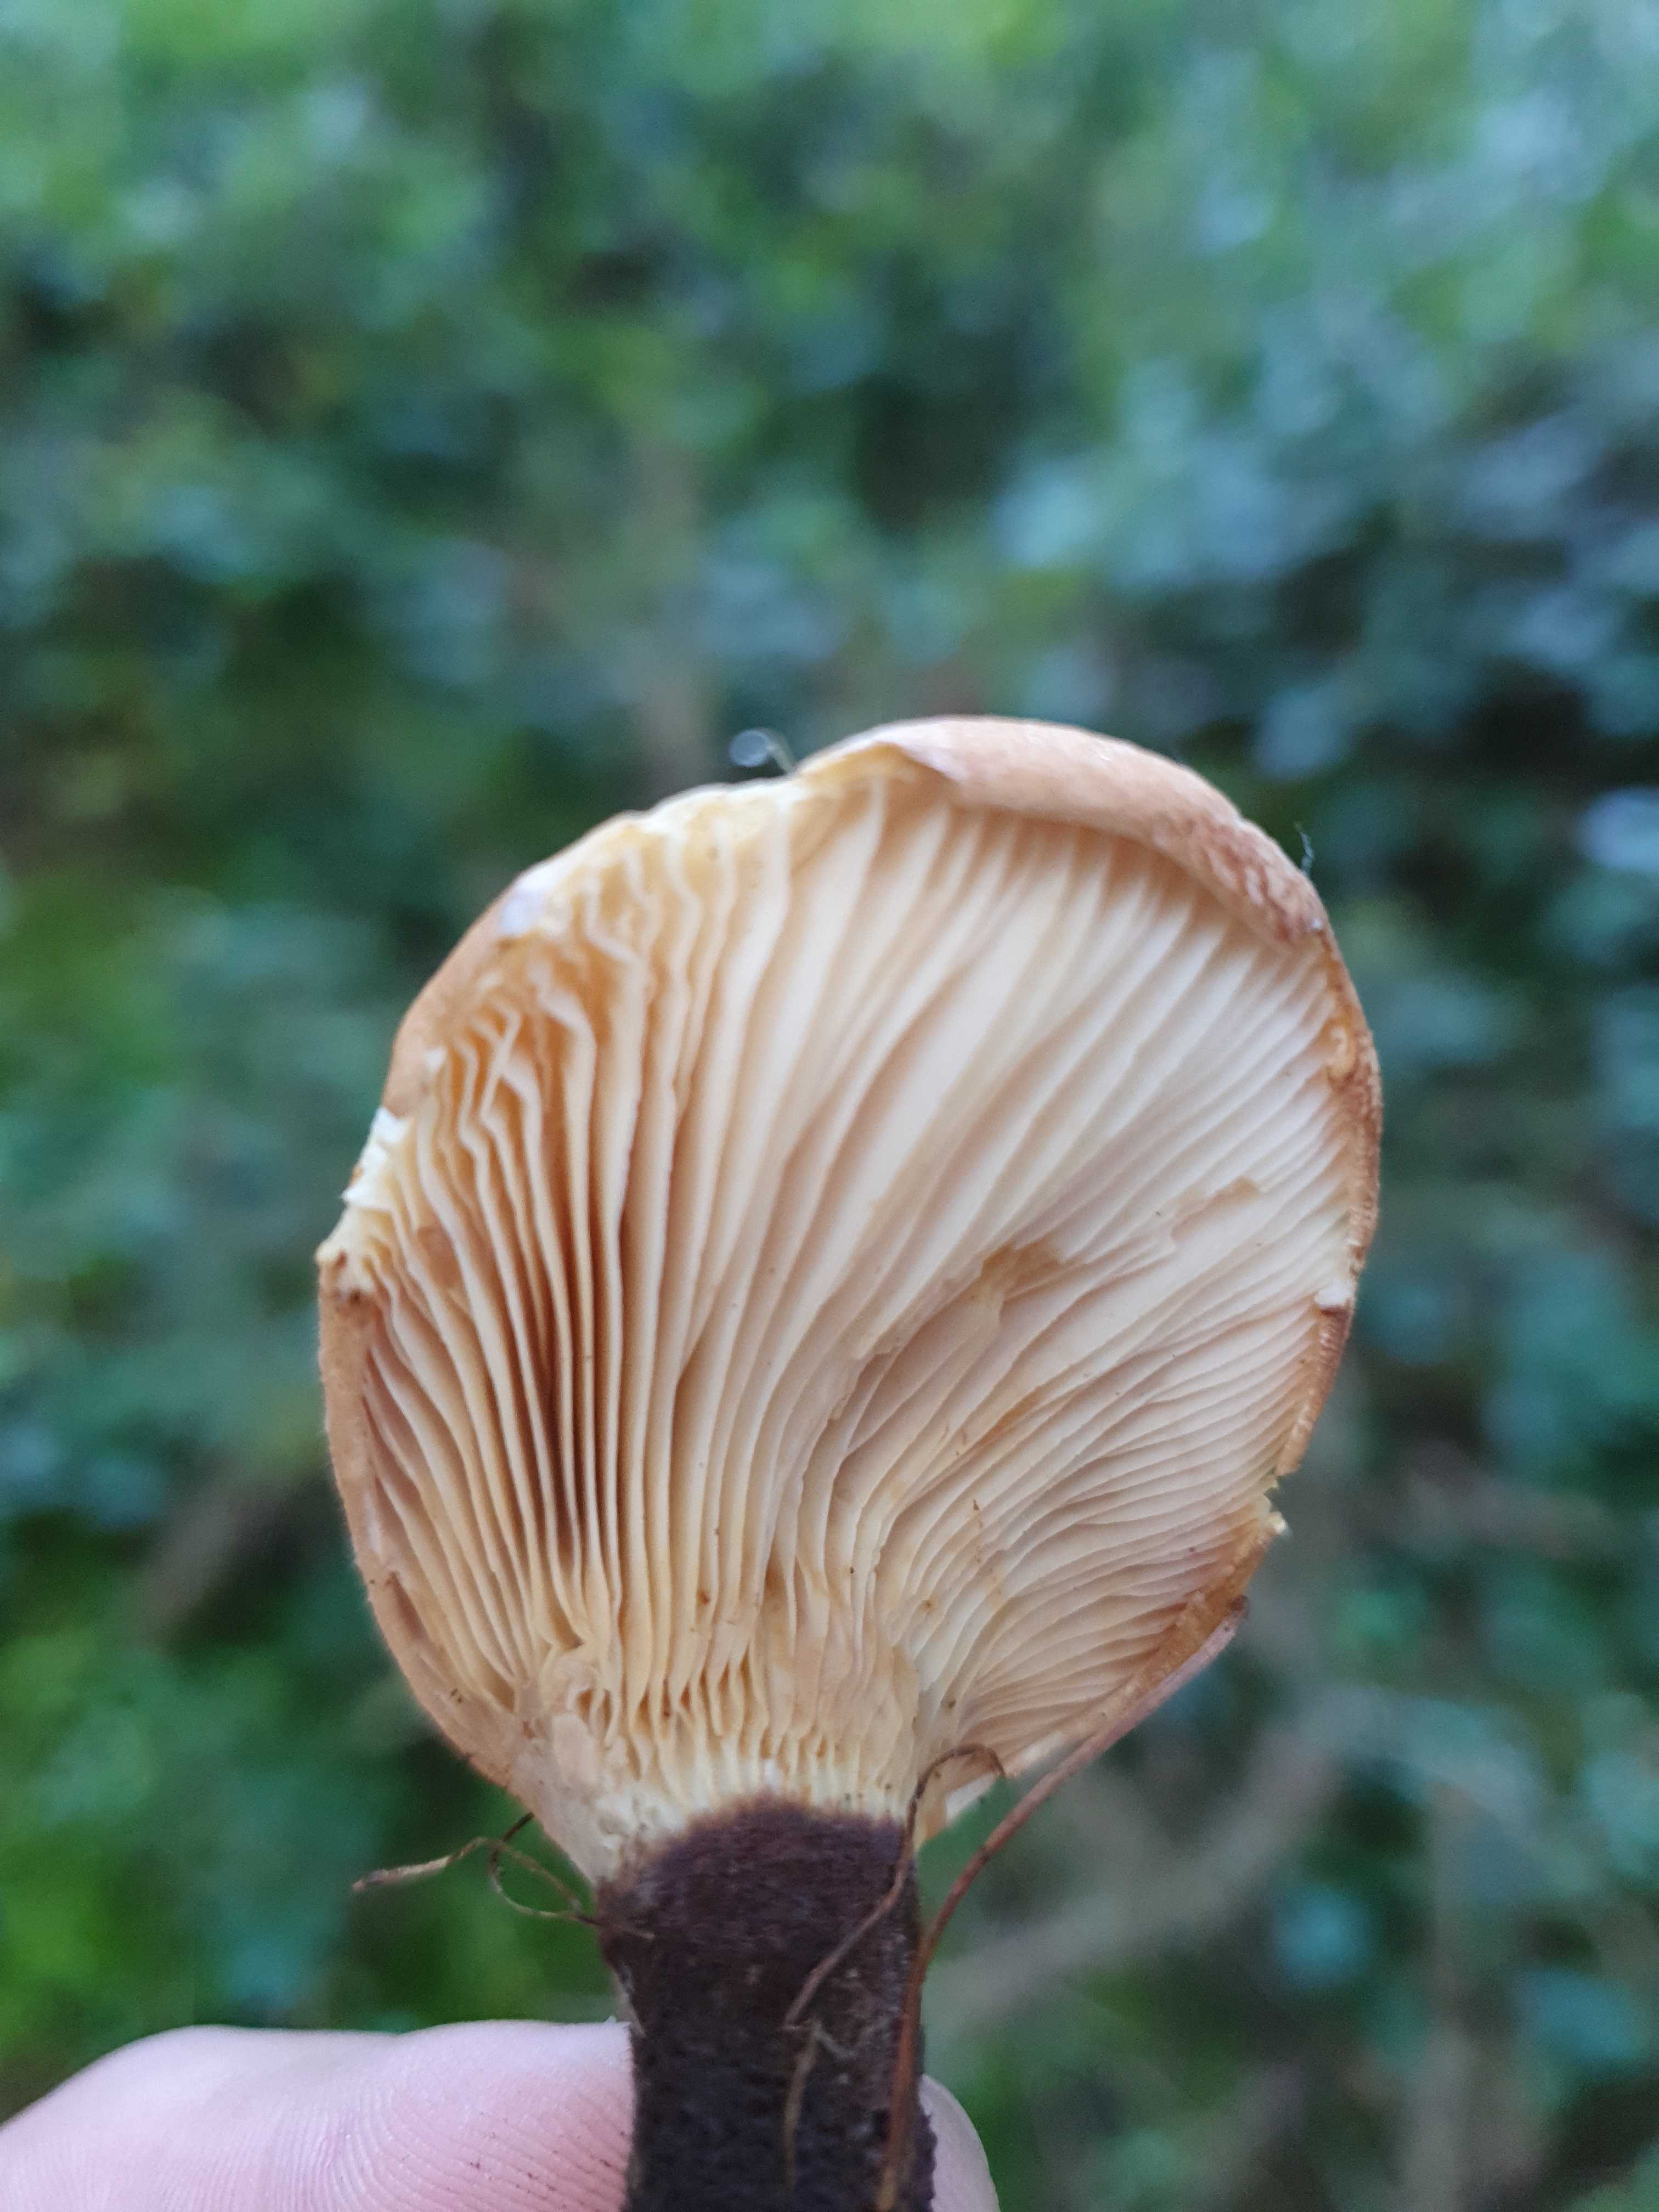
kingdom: Fungi
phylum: Basidiomycota
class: Agaricomycetes
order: Boletales
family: Tapinellaceae
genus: Tapinella
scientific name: Tapinella atrotomentosa
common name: sortfiltet viftesvamp
